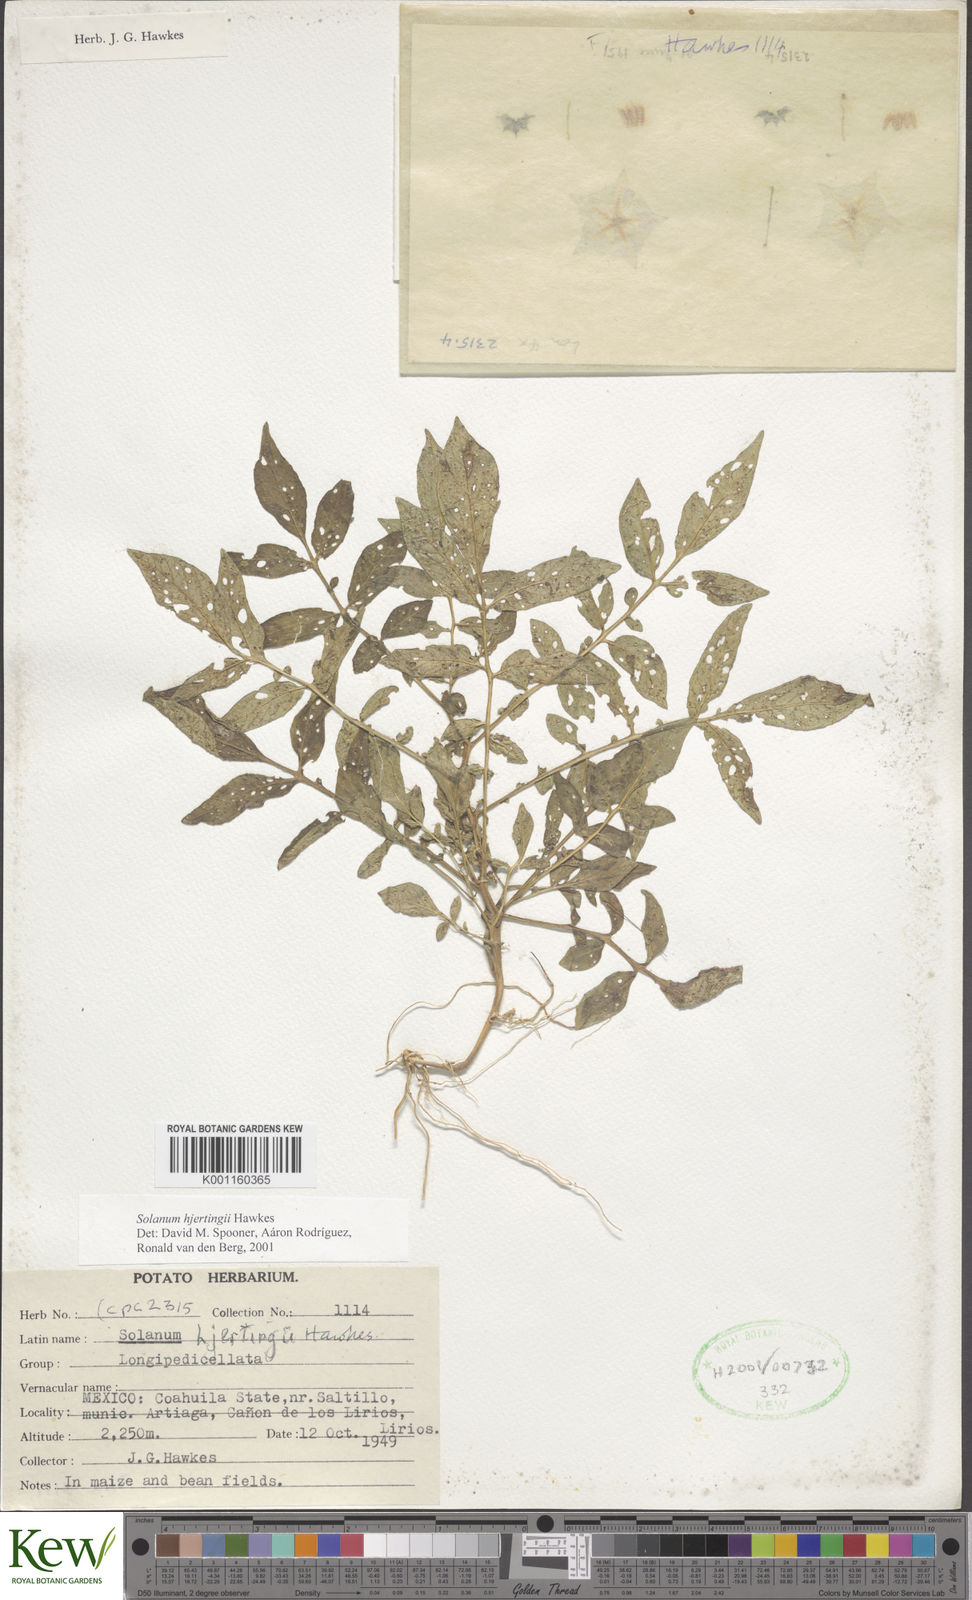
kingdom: Plantae
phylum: Tracheophyta
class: Magnoliopsida
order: Solanales
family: Solanaceae
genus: Solanum
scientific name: Solanum hjertingii
